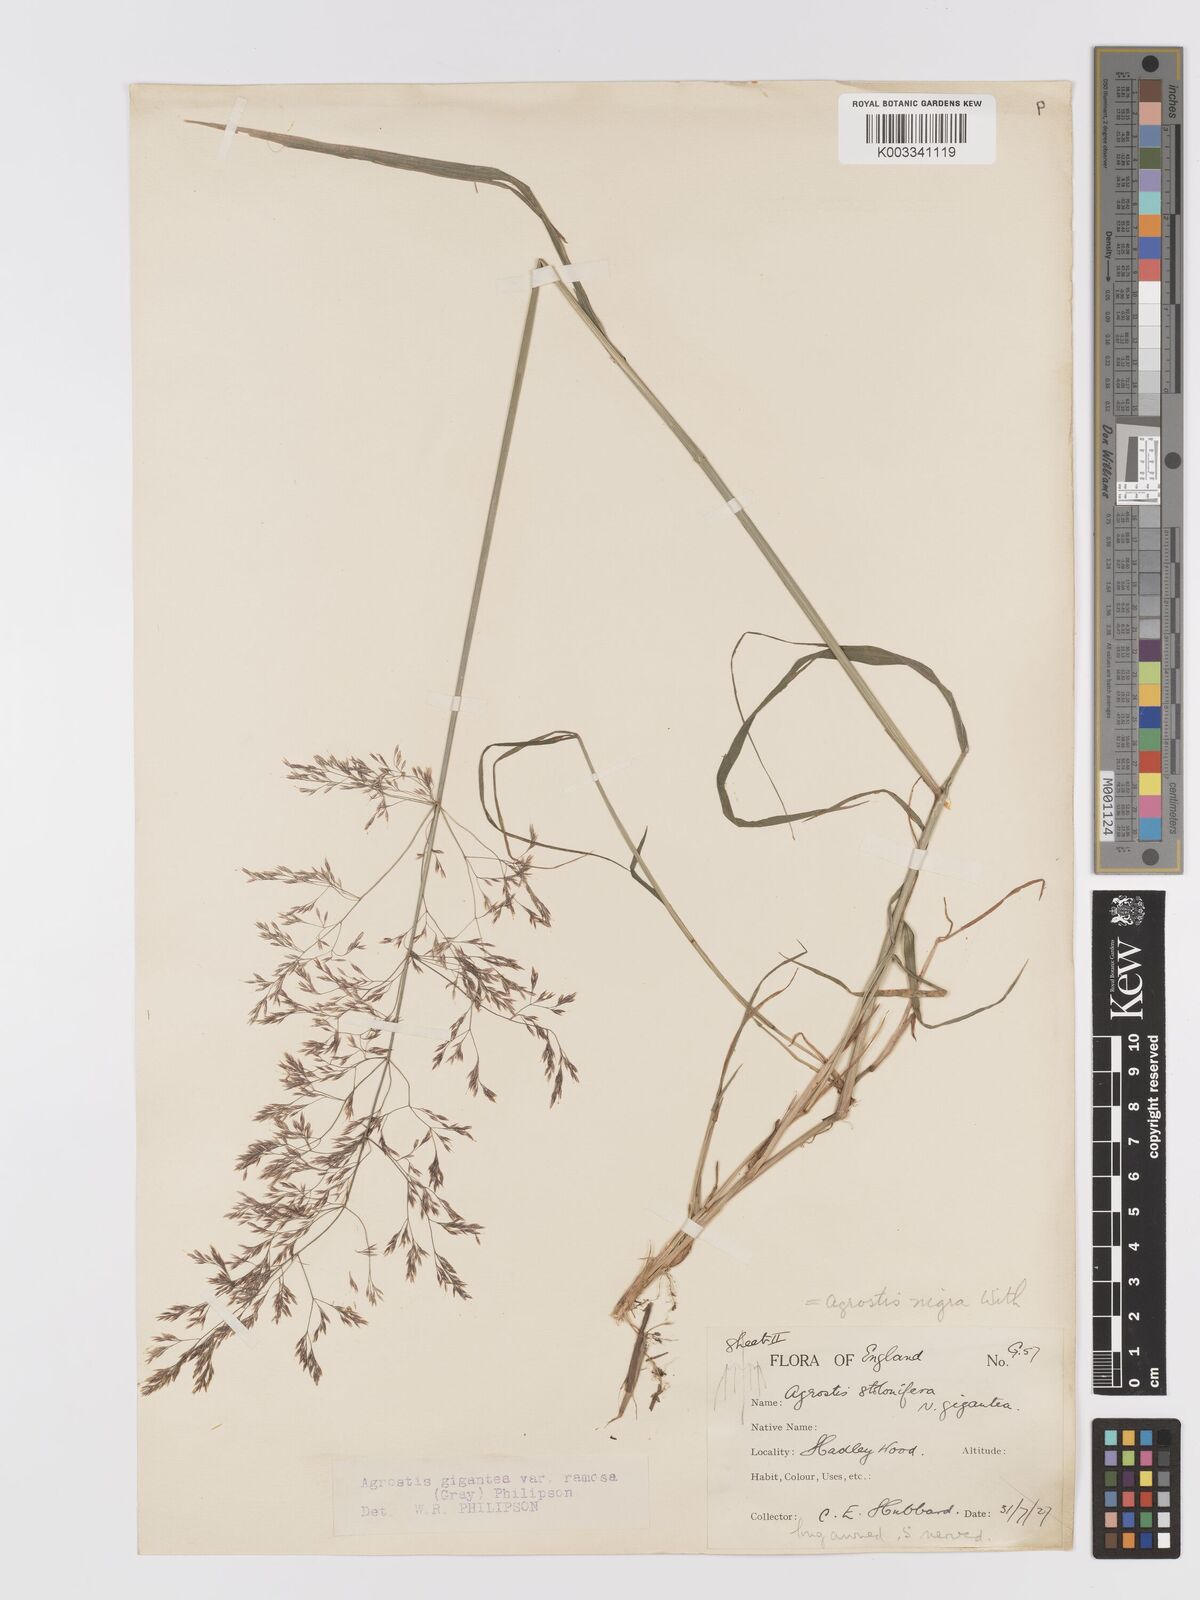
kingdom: Plantae
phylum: Tracheophyta
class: Liliopsida
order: Poales
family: Poaceae
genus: Agrostis
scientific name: Agrostis gigantea
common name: Black bent
